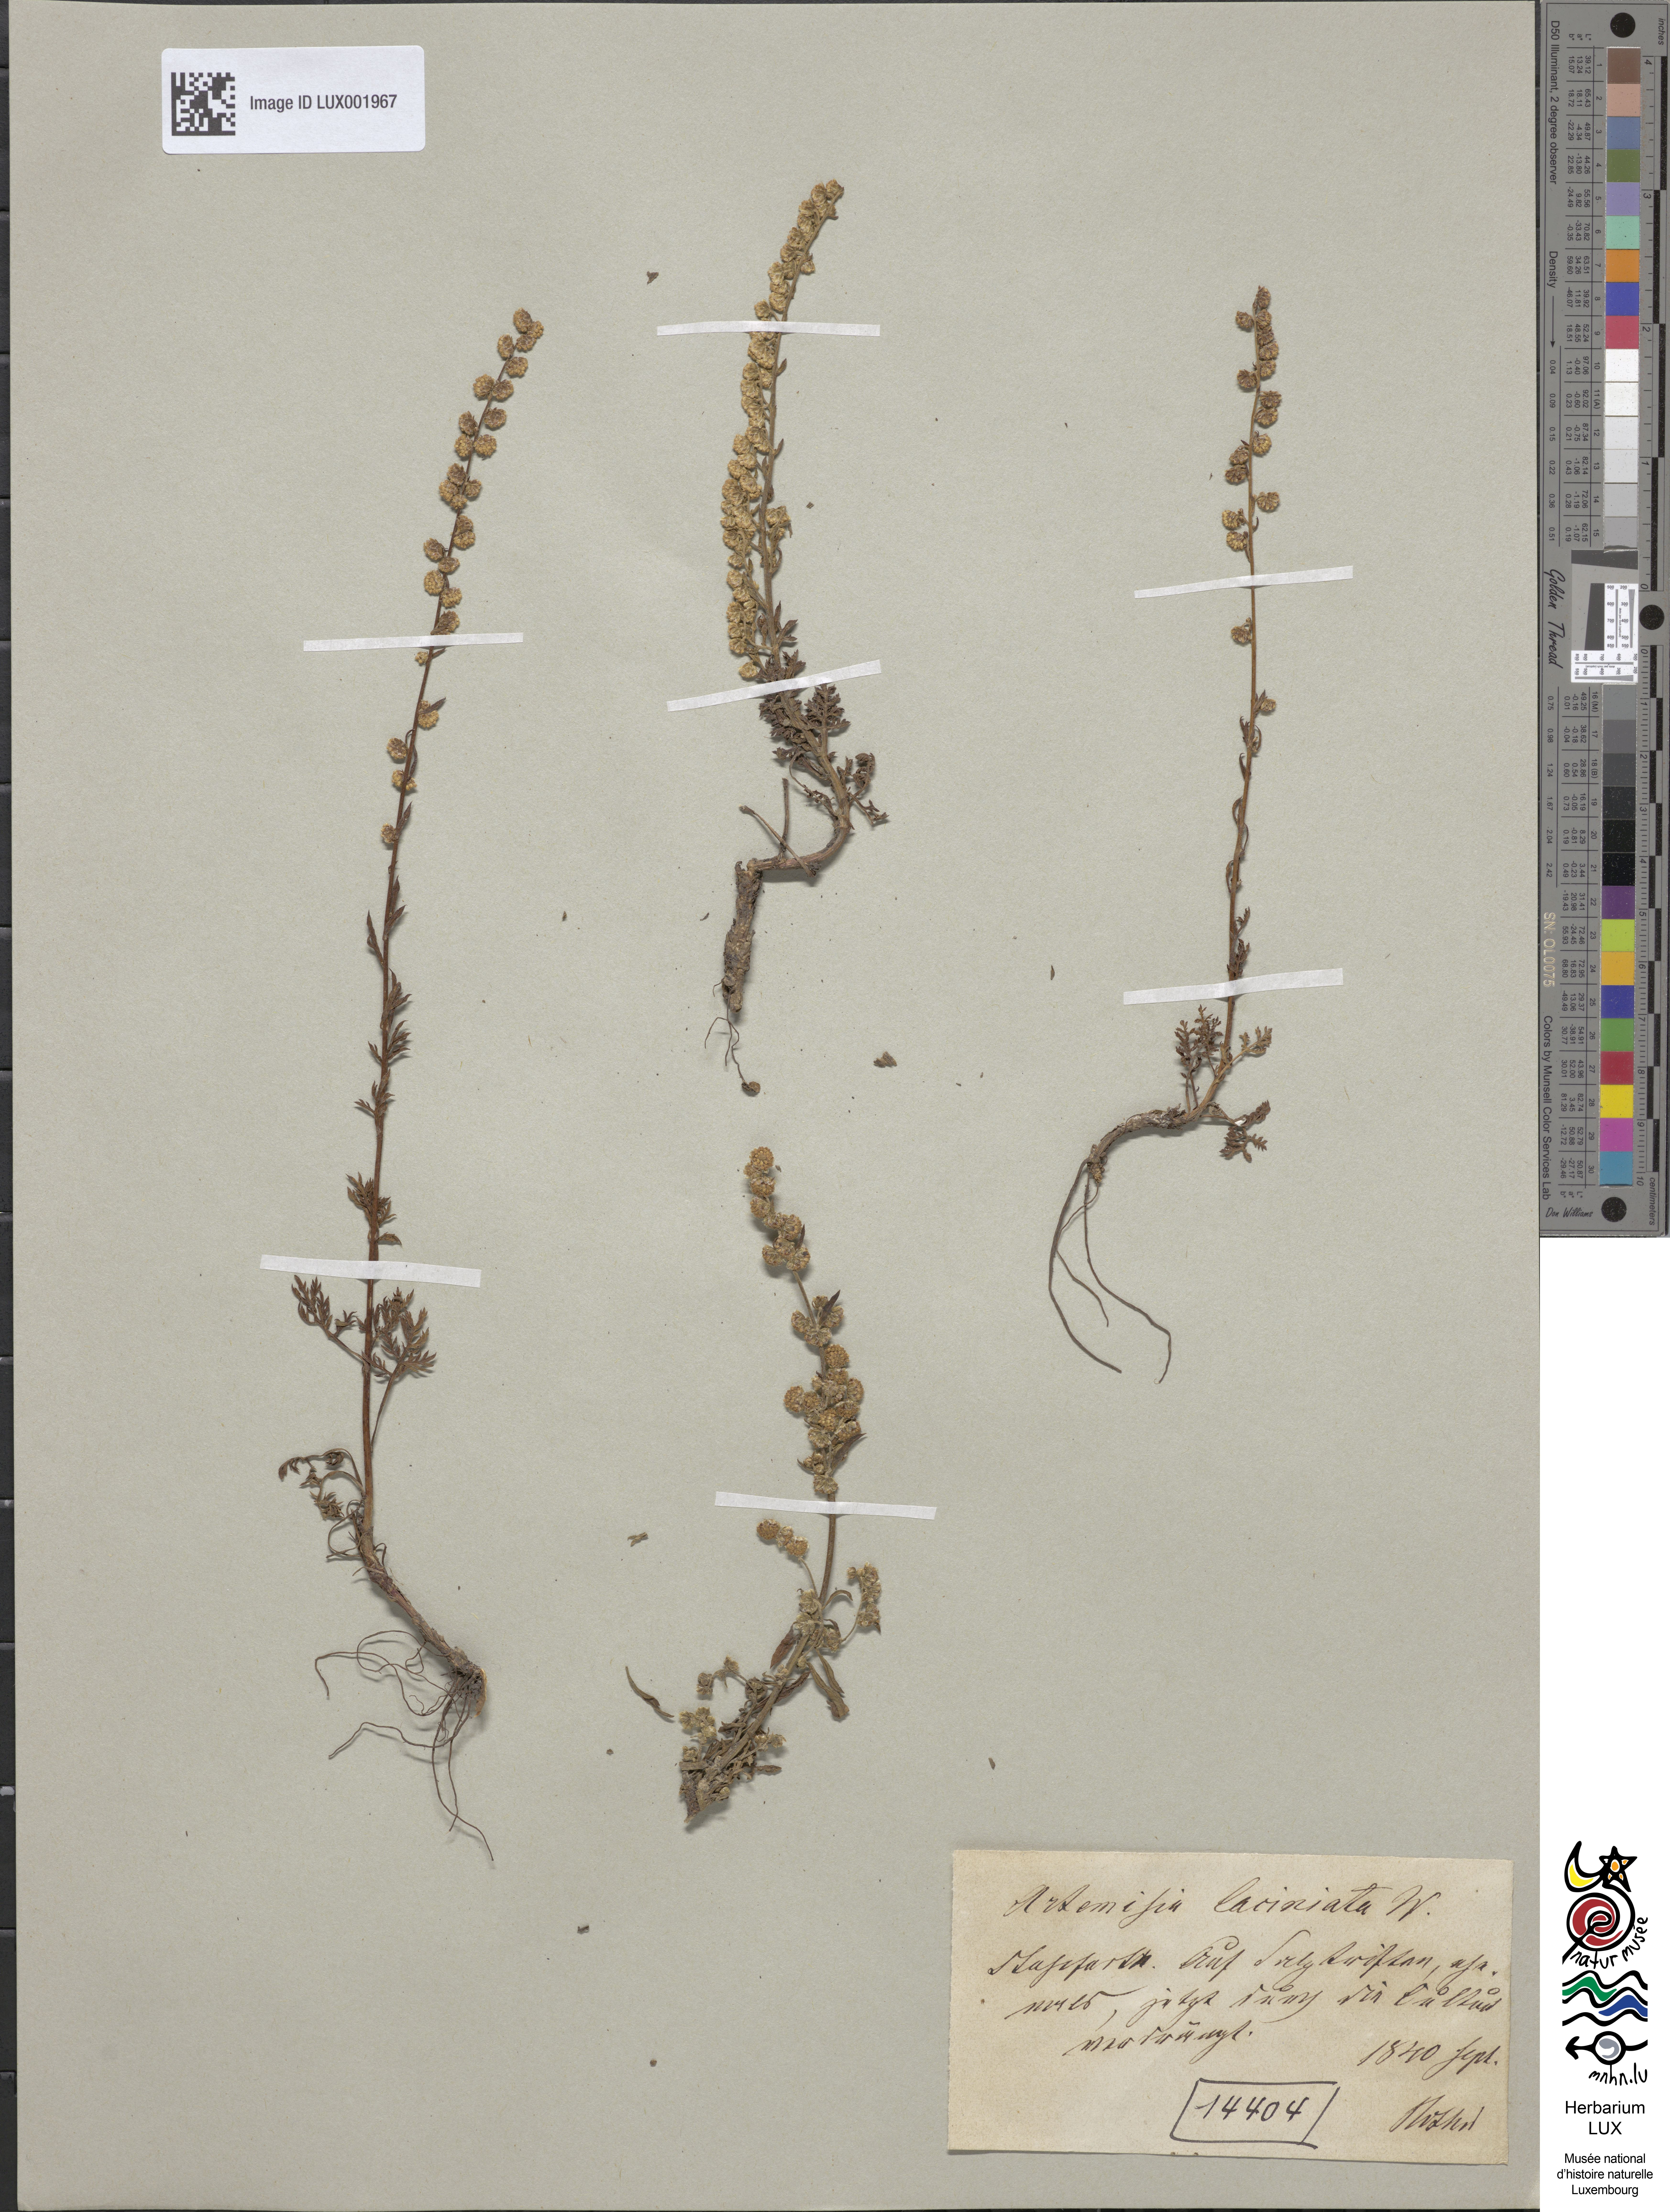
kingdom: Plantae
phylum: Tracheophyta
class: Magnoliopsida
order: Asterales
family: Asteraceae
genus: Artemisia
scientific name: Artemisia laciniata
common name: Siberian wormwood
